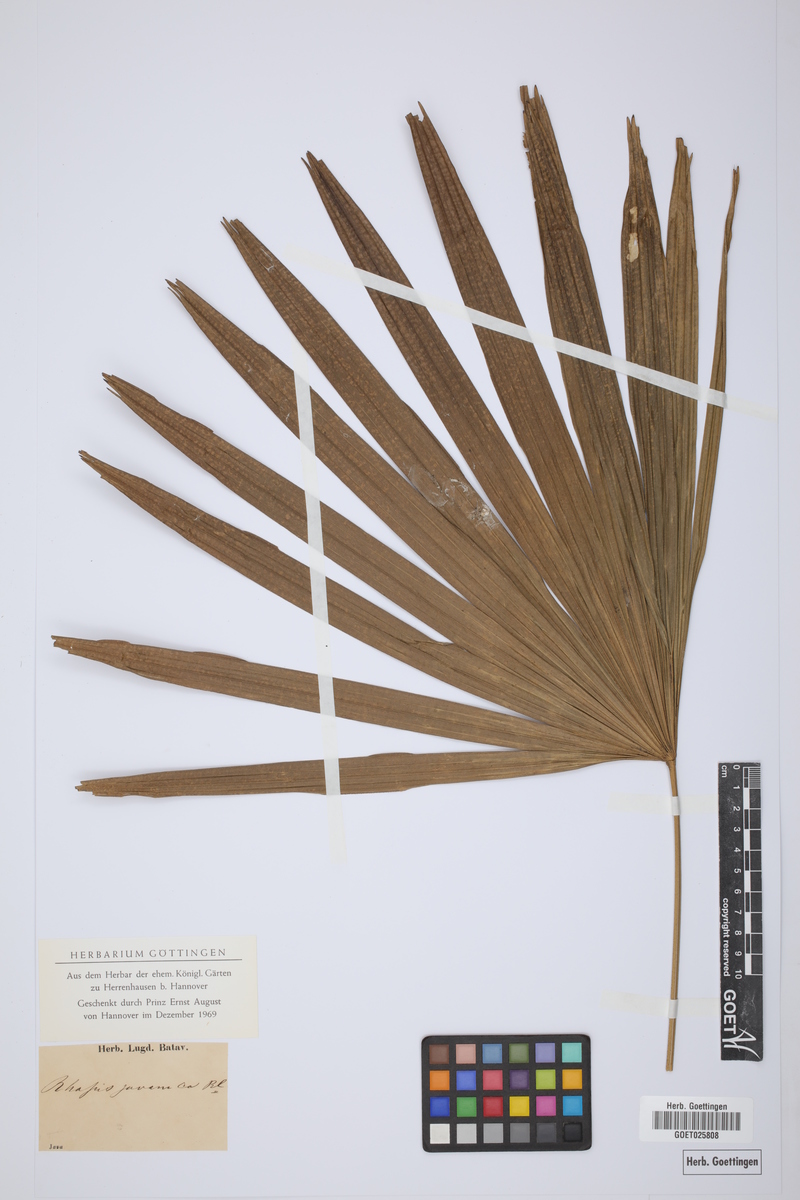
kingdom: Plantae
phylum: Tracheophyta
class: Liliopsida
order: Arecales
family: Arecaceae
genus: Rhapis
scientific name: Rhapis excelsa
